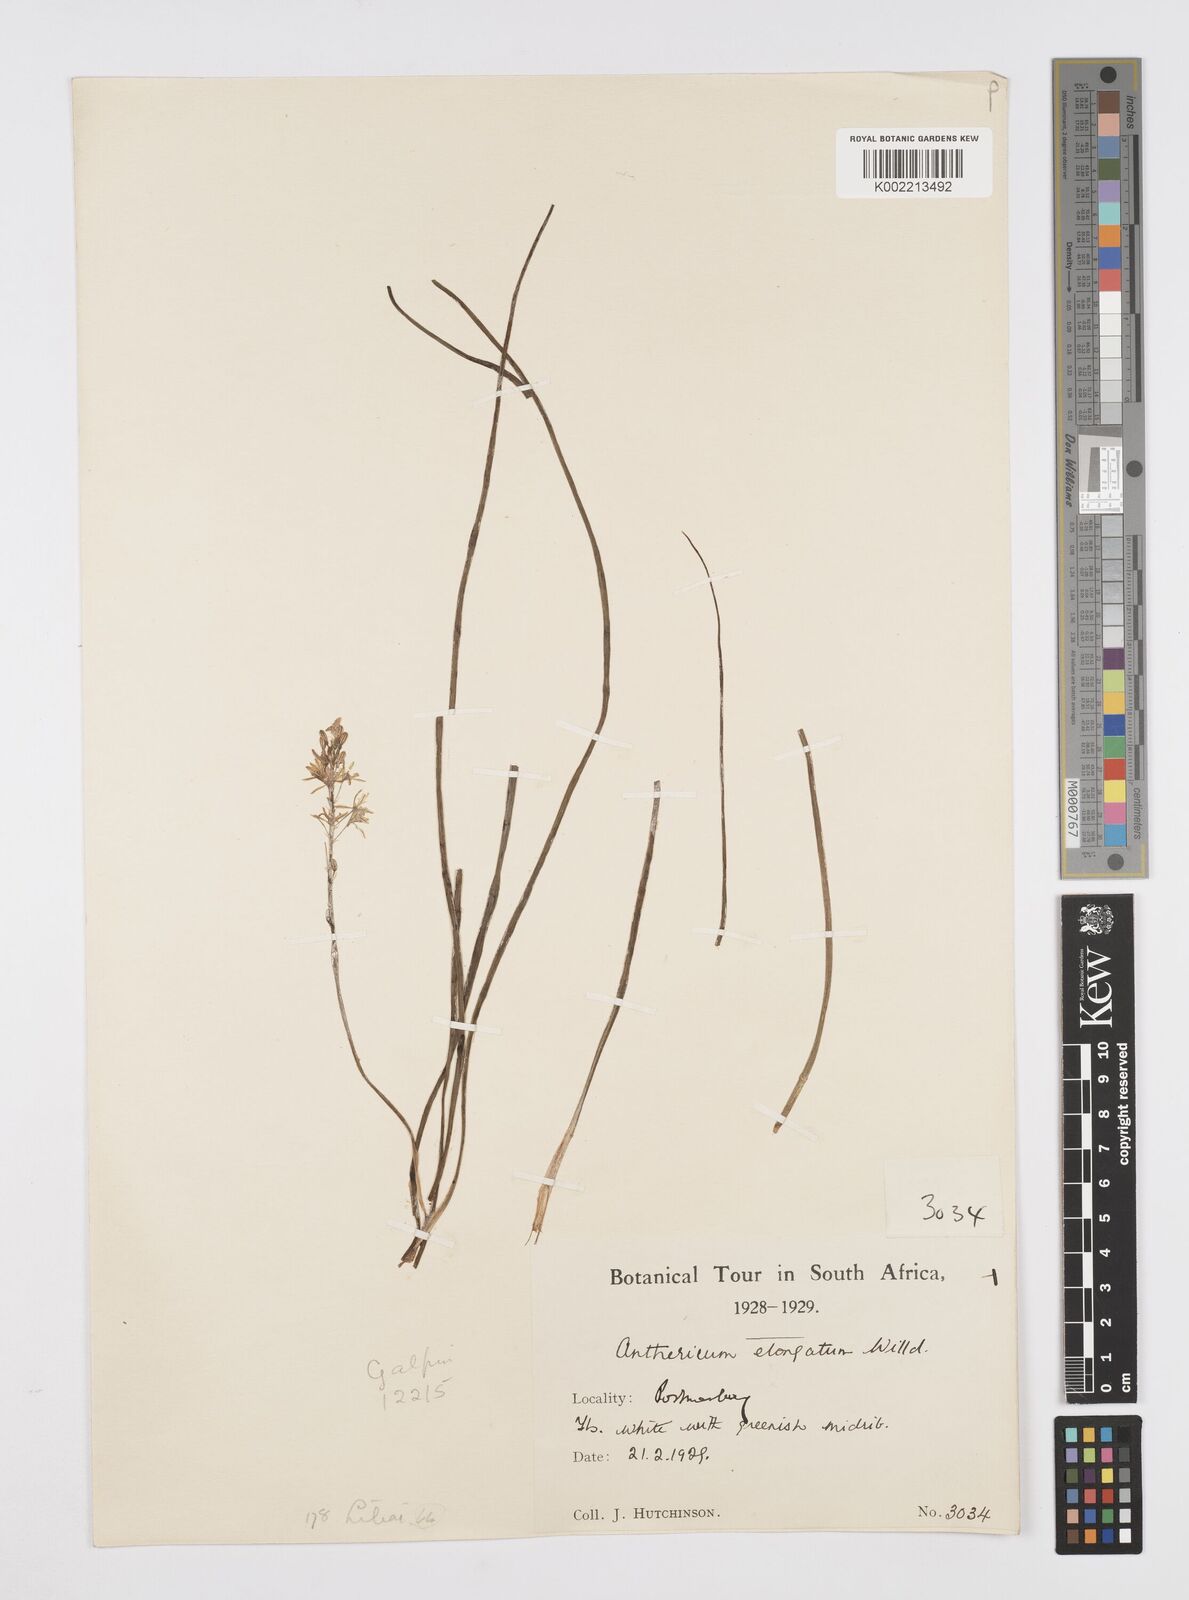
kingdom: Plantae
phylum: Tracheophyta
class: Liliopsida
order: Asparagales
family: Asphodelaceae
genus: Trachyandra
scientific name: Trachyandra saltii
